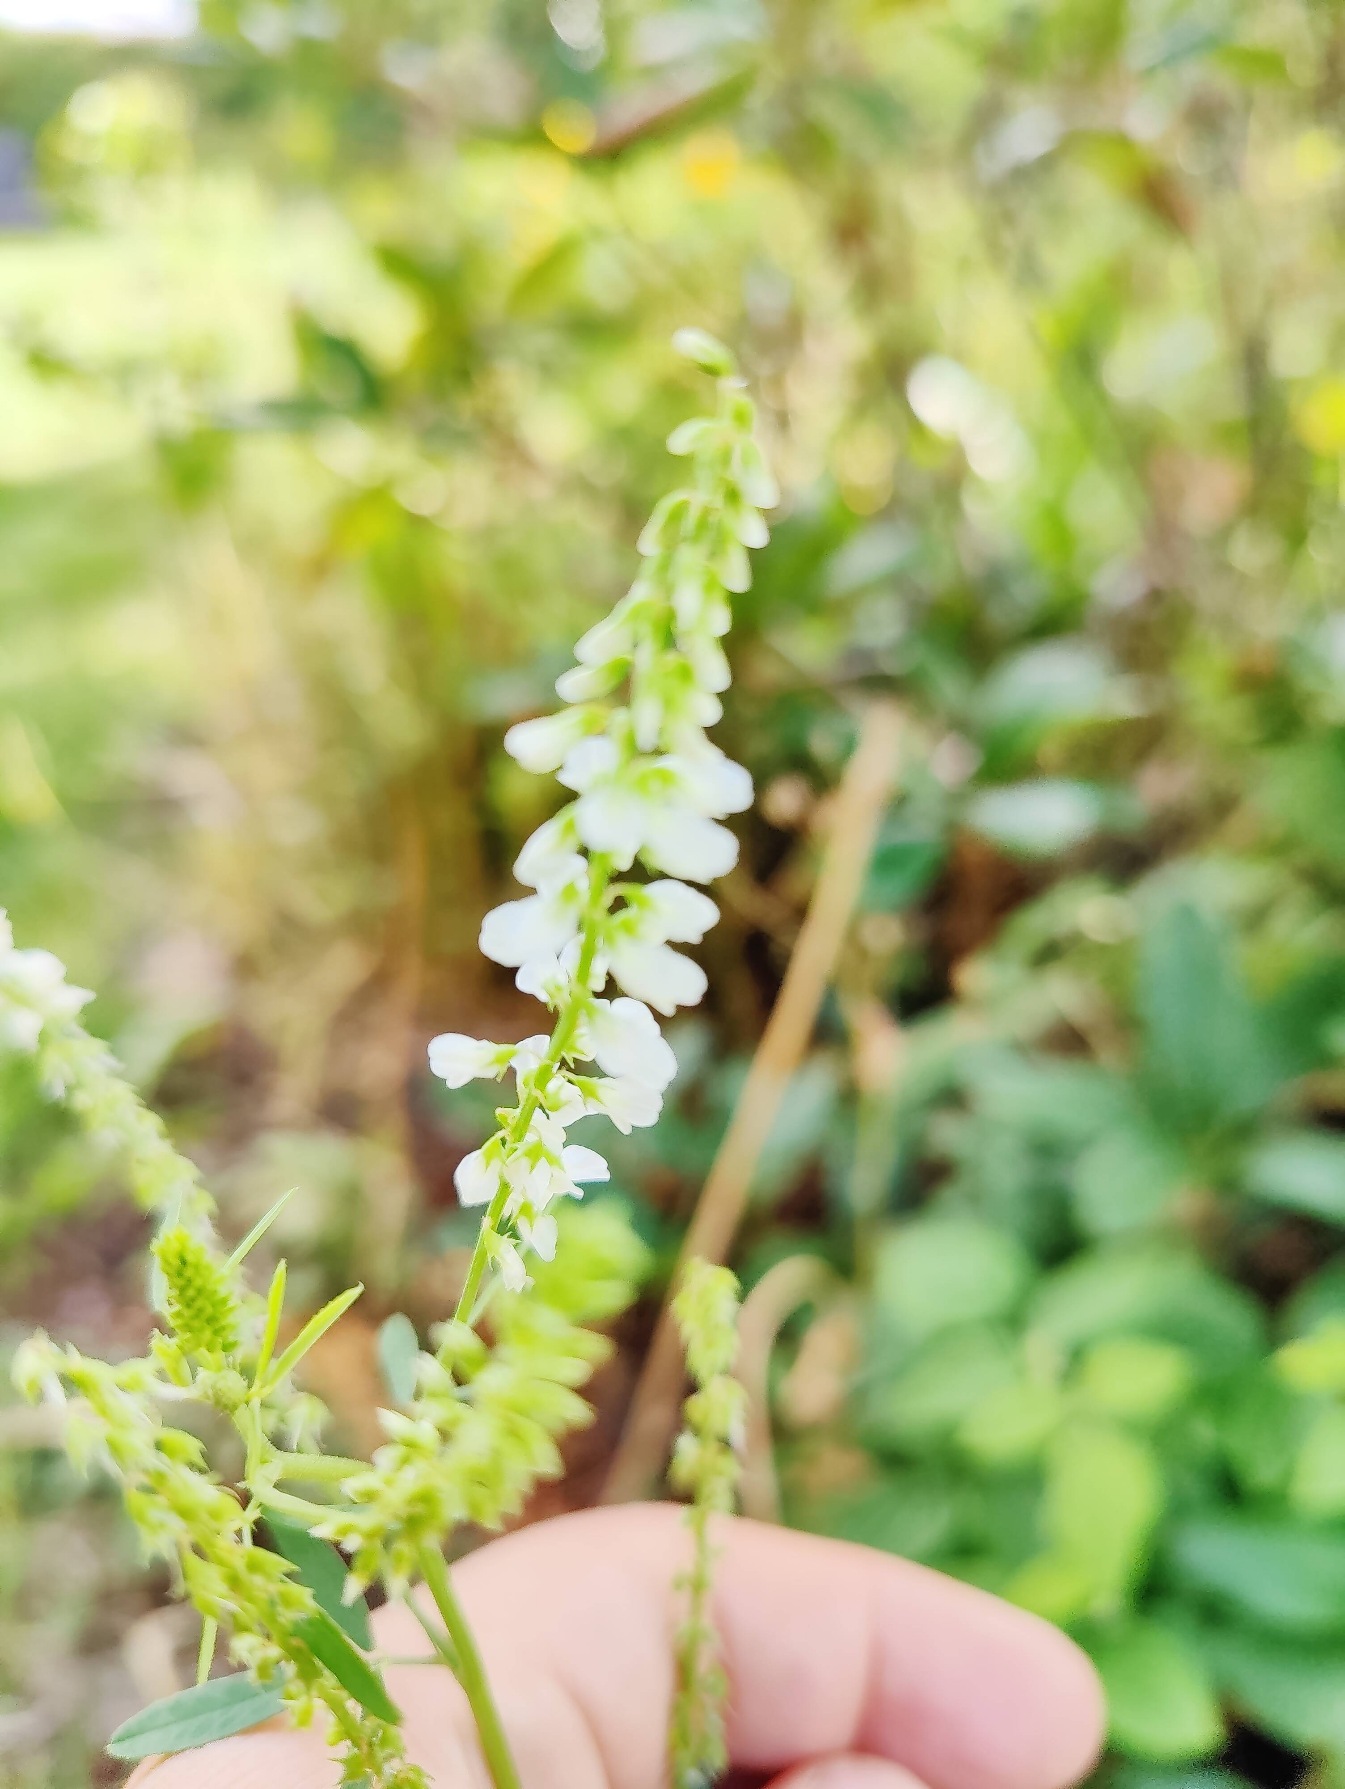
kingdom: Plantae
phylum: Tracheophyta
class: Magnoliopsida
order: Fabales
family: Fabaceae
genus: Melilotus
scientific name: Melilotus albus
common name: Hvid stenkløver
